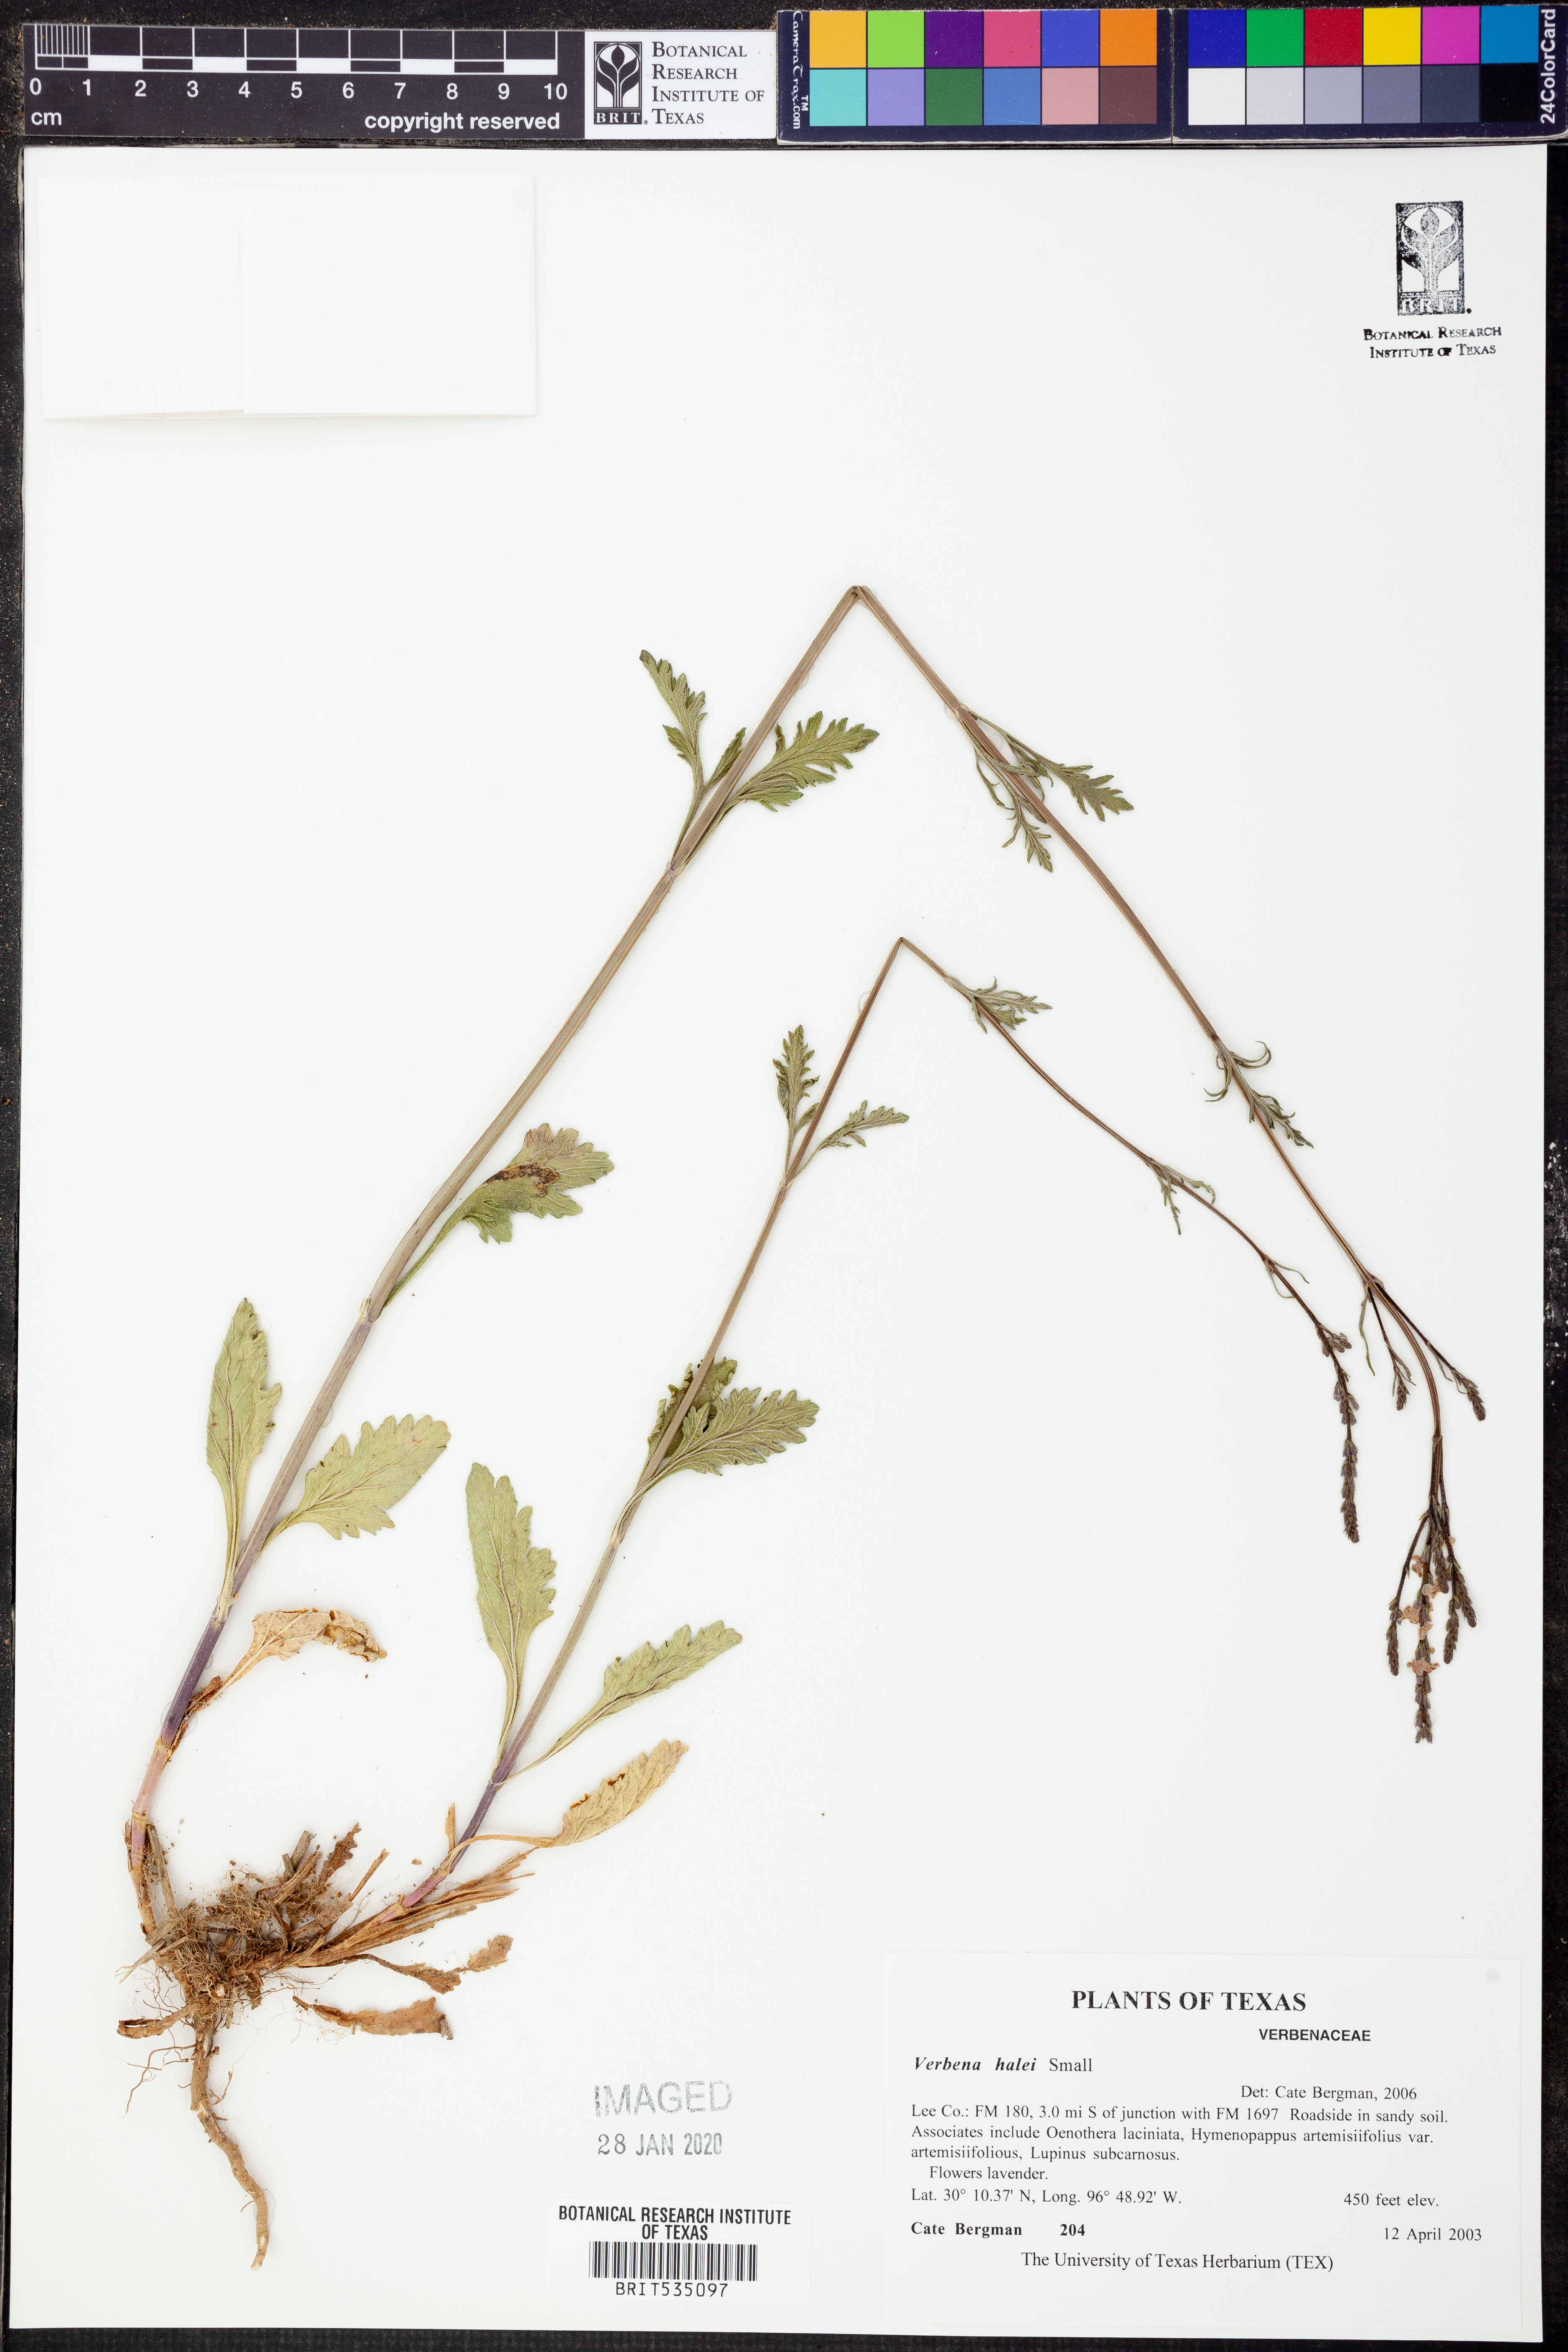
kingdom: Plantae
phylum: Tracheophyta
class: Magnoliopsida
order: Lamiales
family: Verbenaceae
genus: Verbena
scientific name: Verbena halei
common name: Texas vervain
